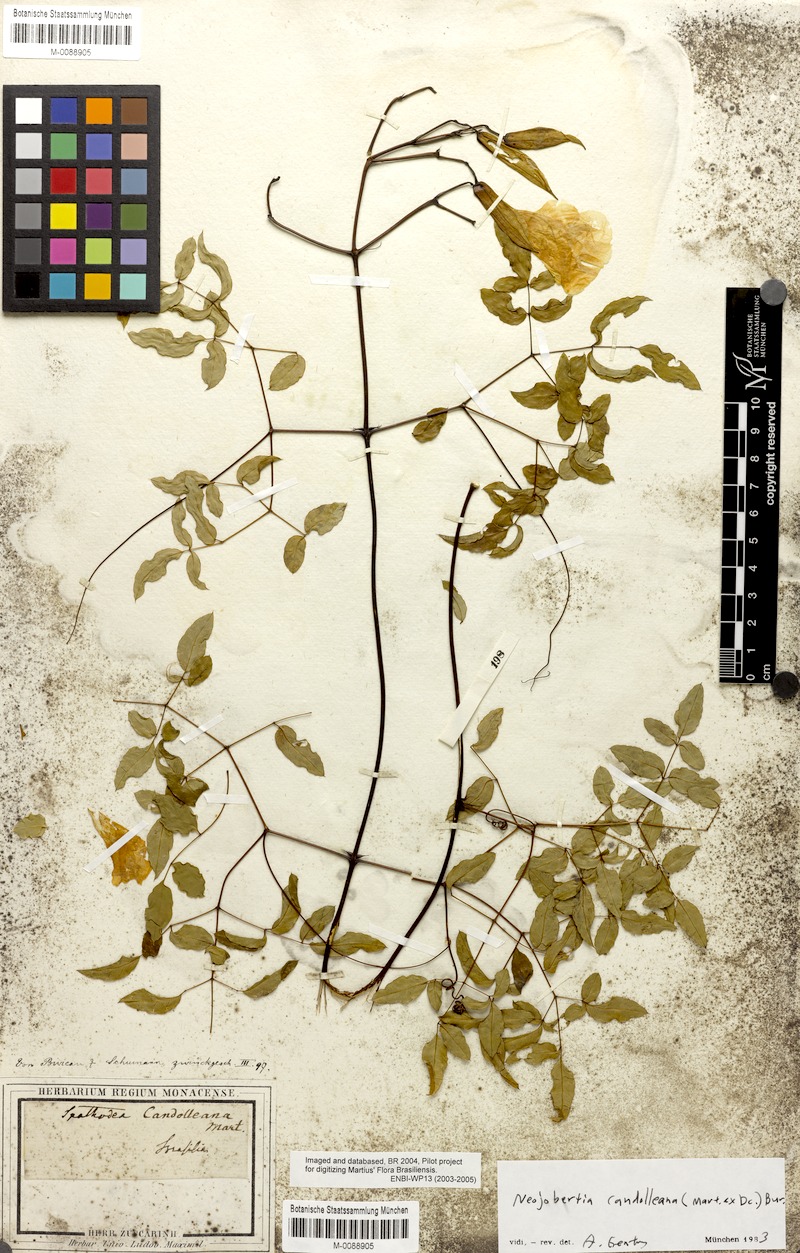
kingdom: Plantae
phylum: Tracheophyta
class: Magnoliopsida
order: Lamiales
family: Bignoniaceae
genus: Adenocalymma
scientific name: Adenocalymma candolleanum
